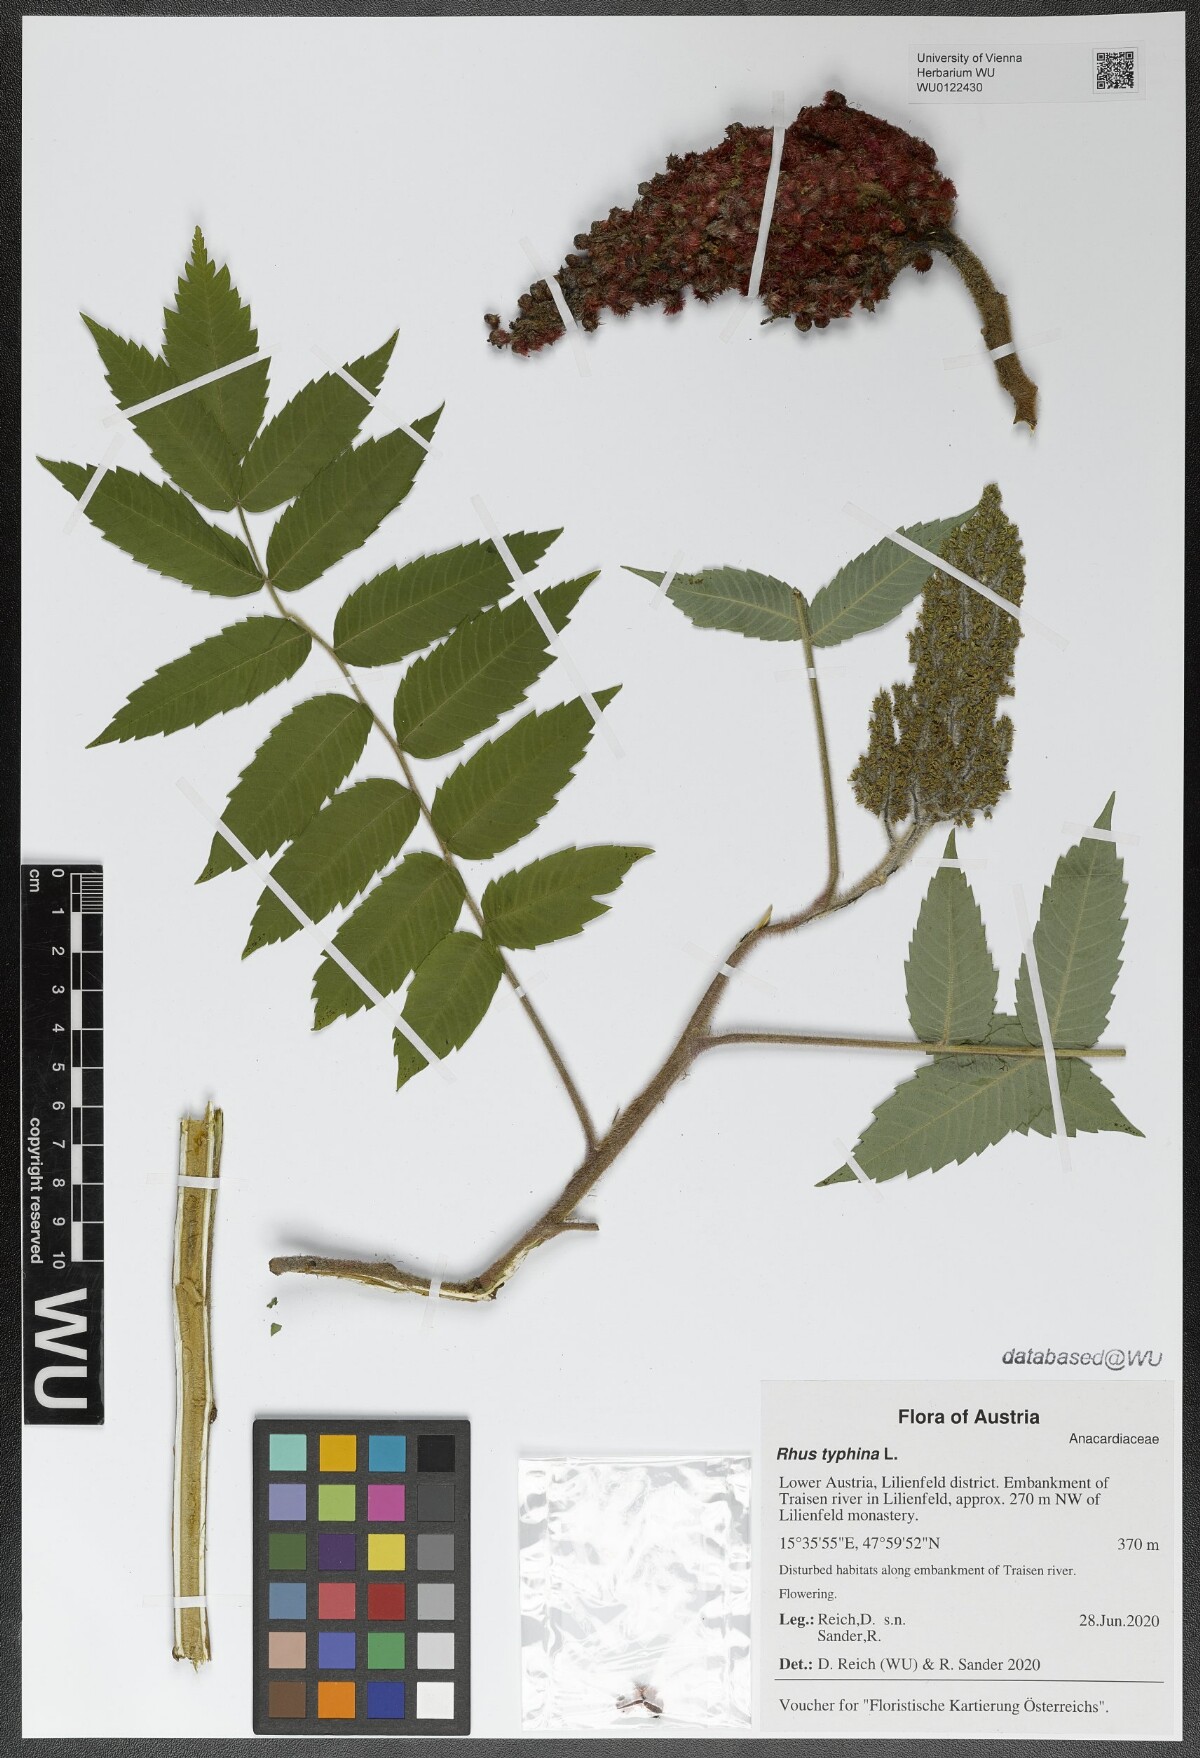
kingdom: Plantae
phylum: Tracheophyta
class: Magnoliopsida
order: Sapindales
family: Anacardiaceae
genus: Rhus
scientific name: Rhus typhina
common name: Staghorn sumac
